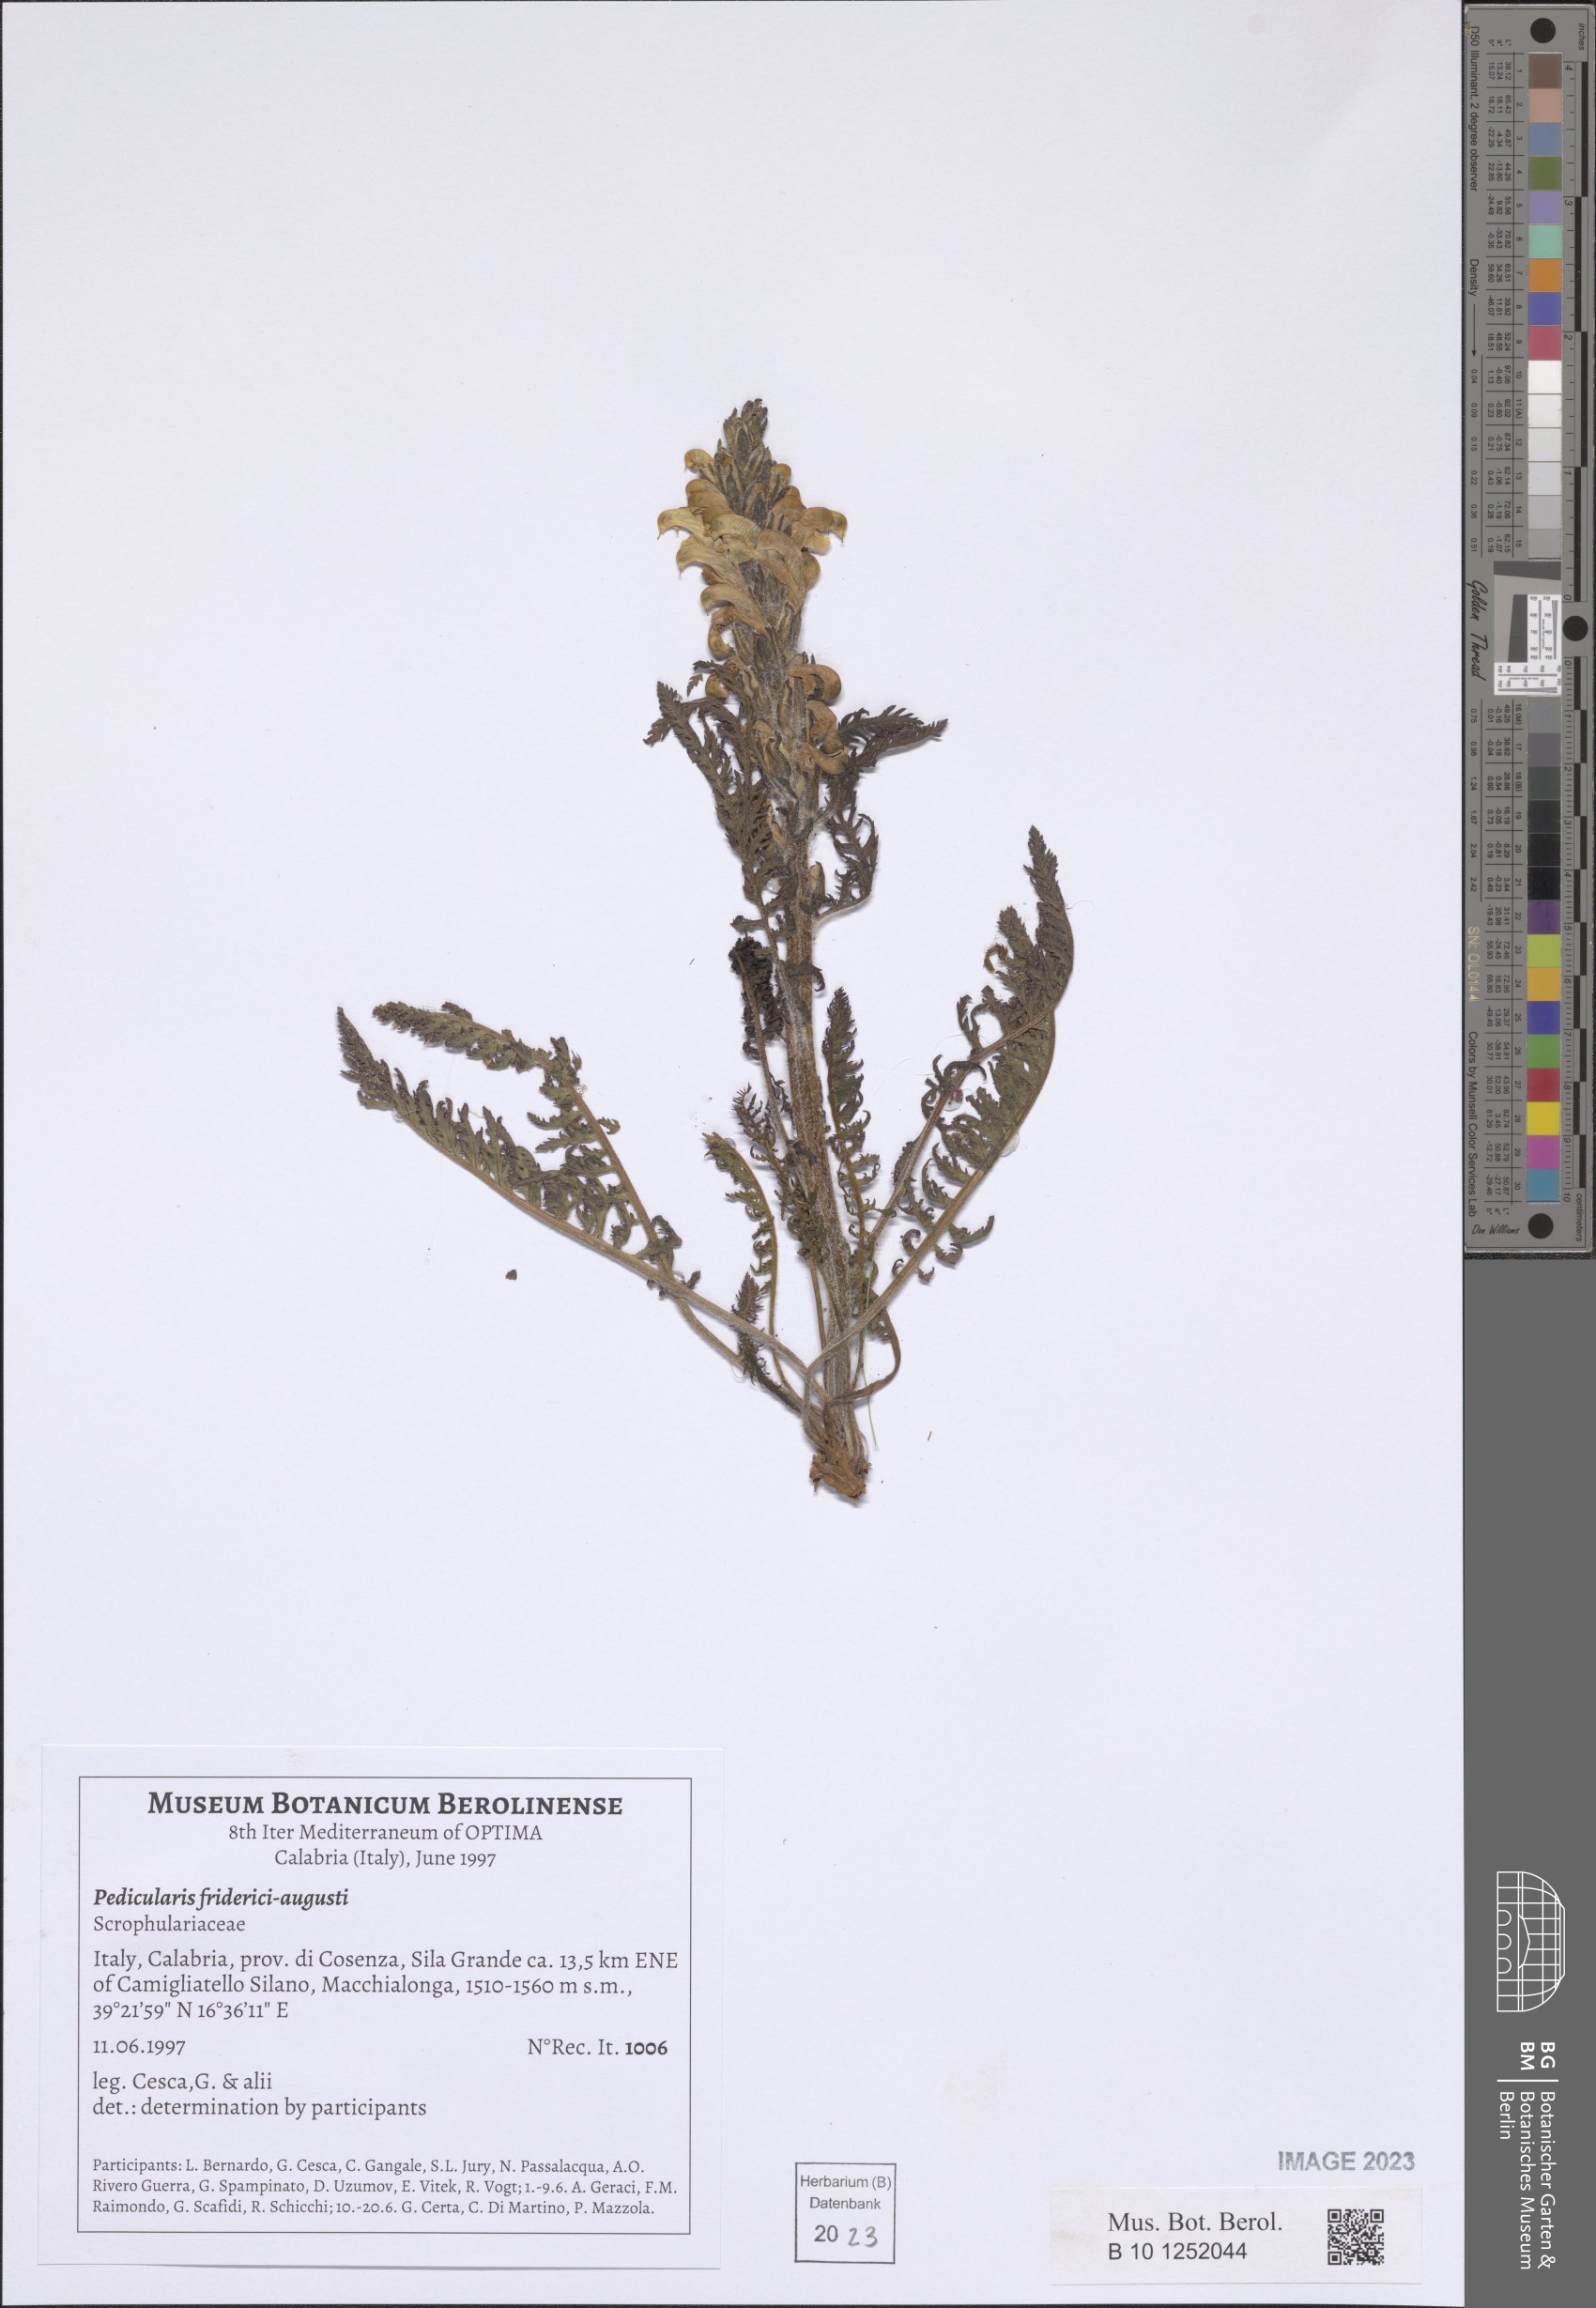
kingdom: Plantae
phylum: Tracheophyta
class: Magnoliopsida
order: Lamiales
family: Orobanchaceae
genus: Pedicularis
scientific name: Pedicularis friderici-augusti
